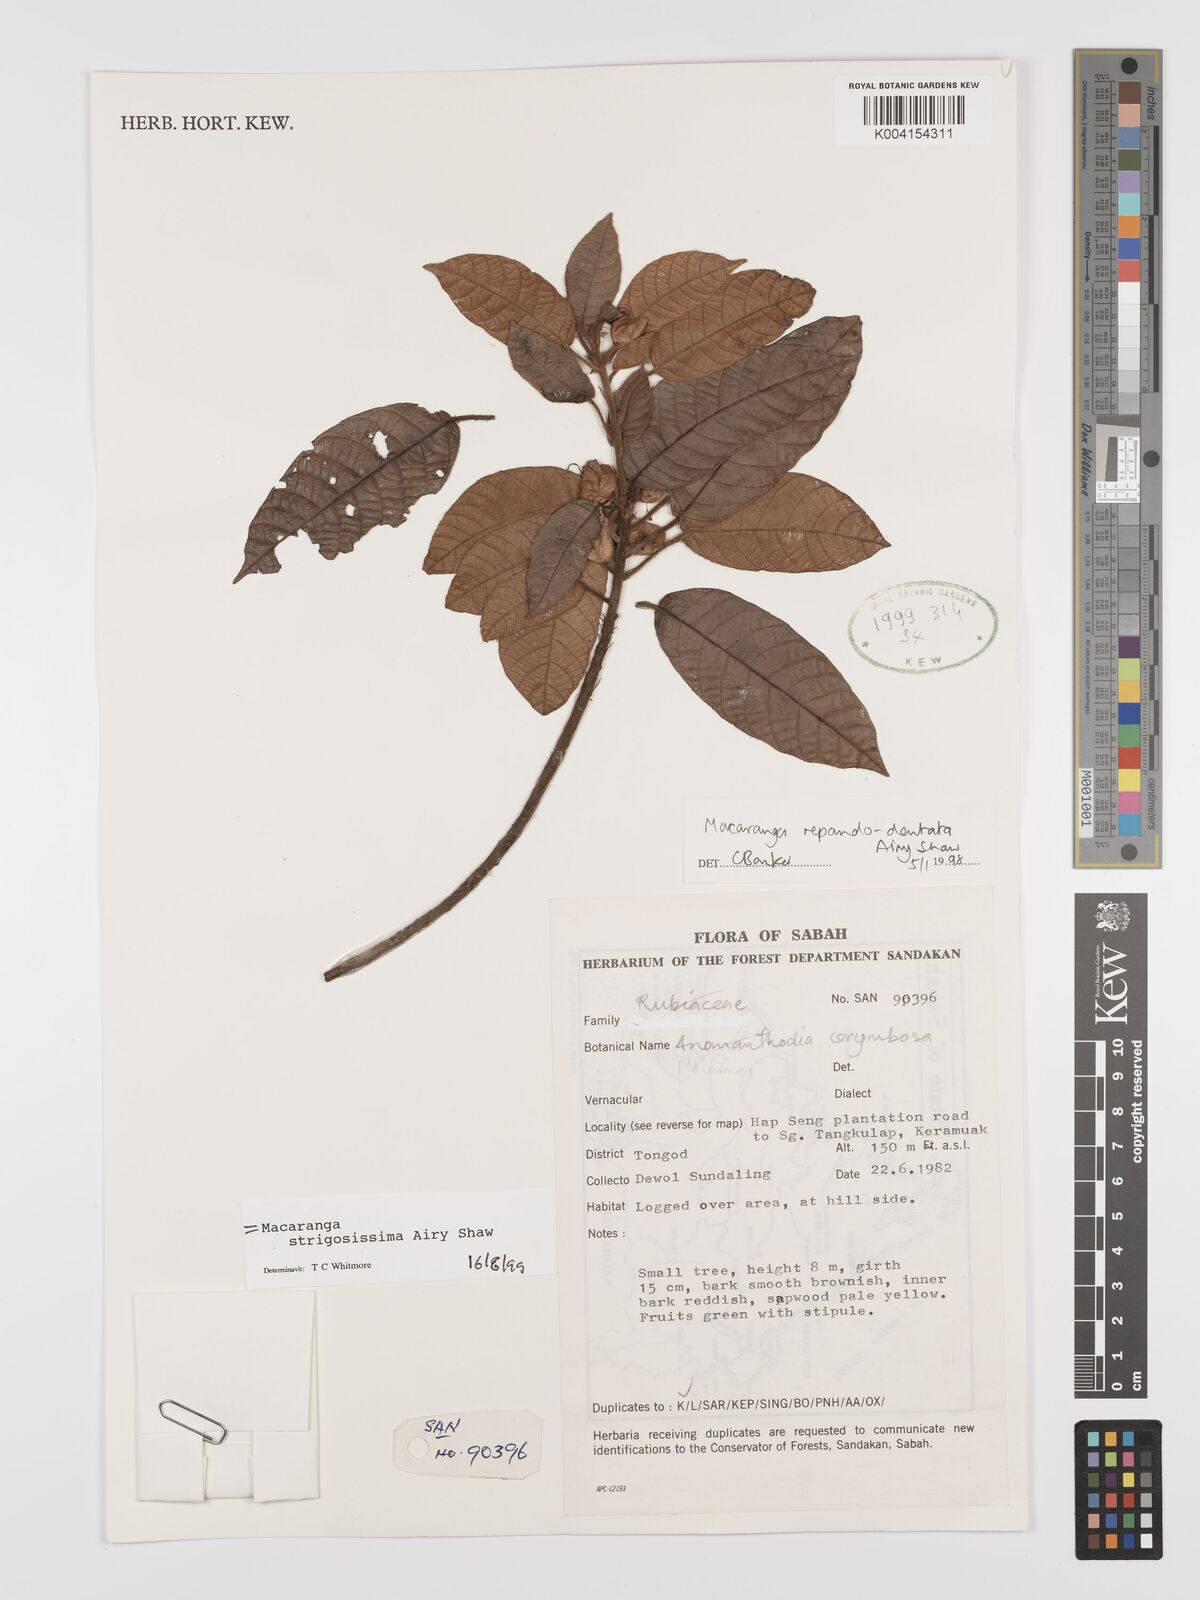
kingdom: Plantae
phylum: Tracheophyta
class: Magnoliopsida
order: Malpighiales
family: Euphorbiaceae
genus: Macaranga
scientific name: Macaranga strigosissima
